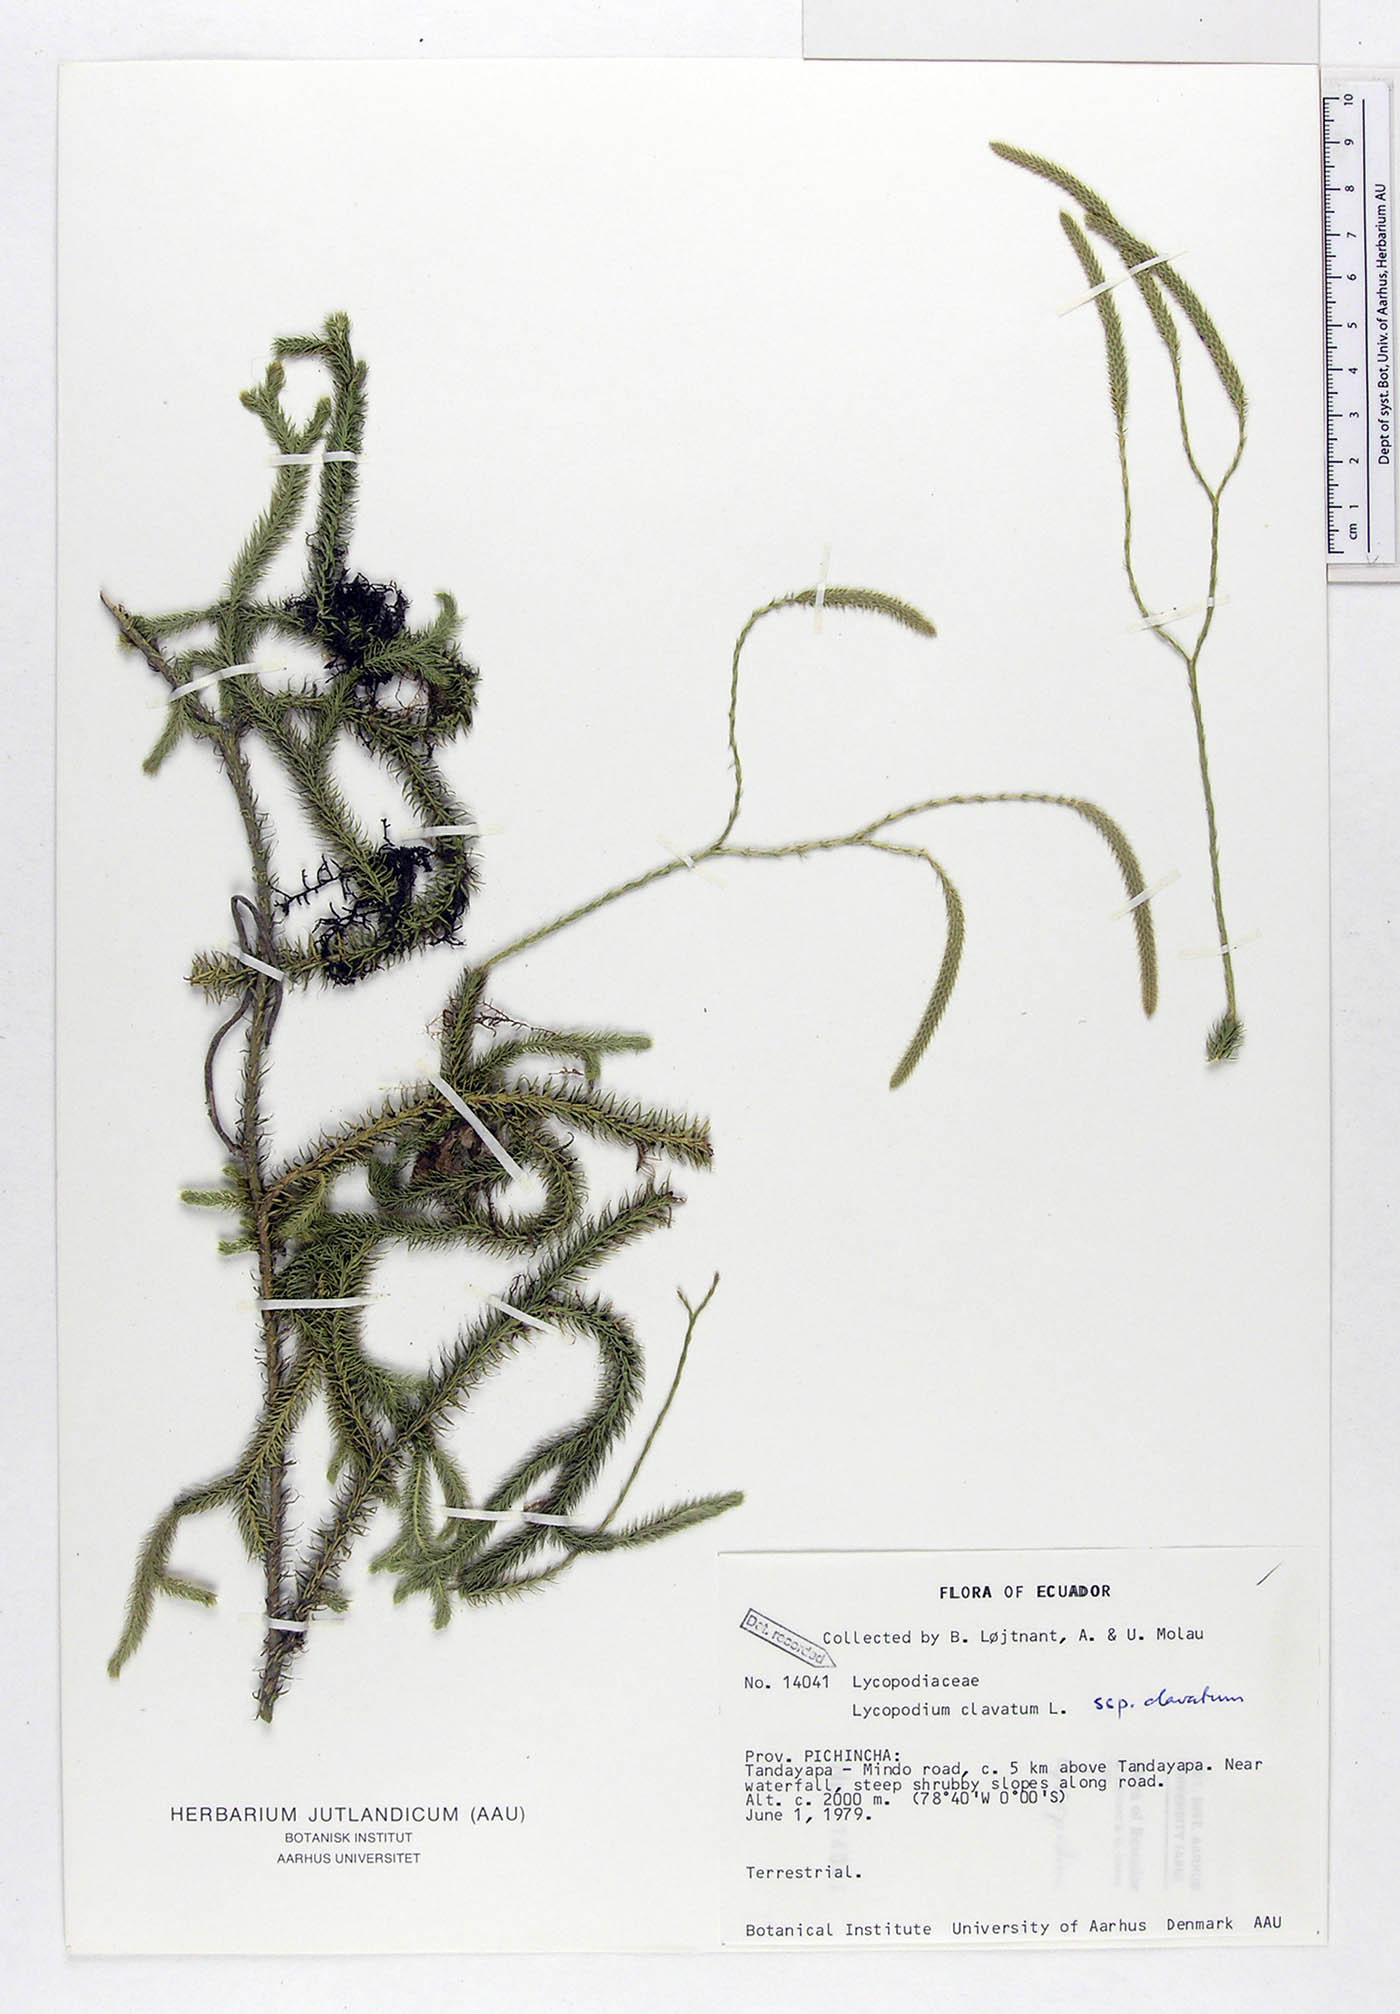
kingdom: Plantae
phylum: Tracheophyta
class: Lycopodiopsida
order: Lycopodiales
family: Lycopodiaceae
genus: Lycopodium
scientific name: Lycopodium clavatum
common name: Stag's-horn clubmoss
